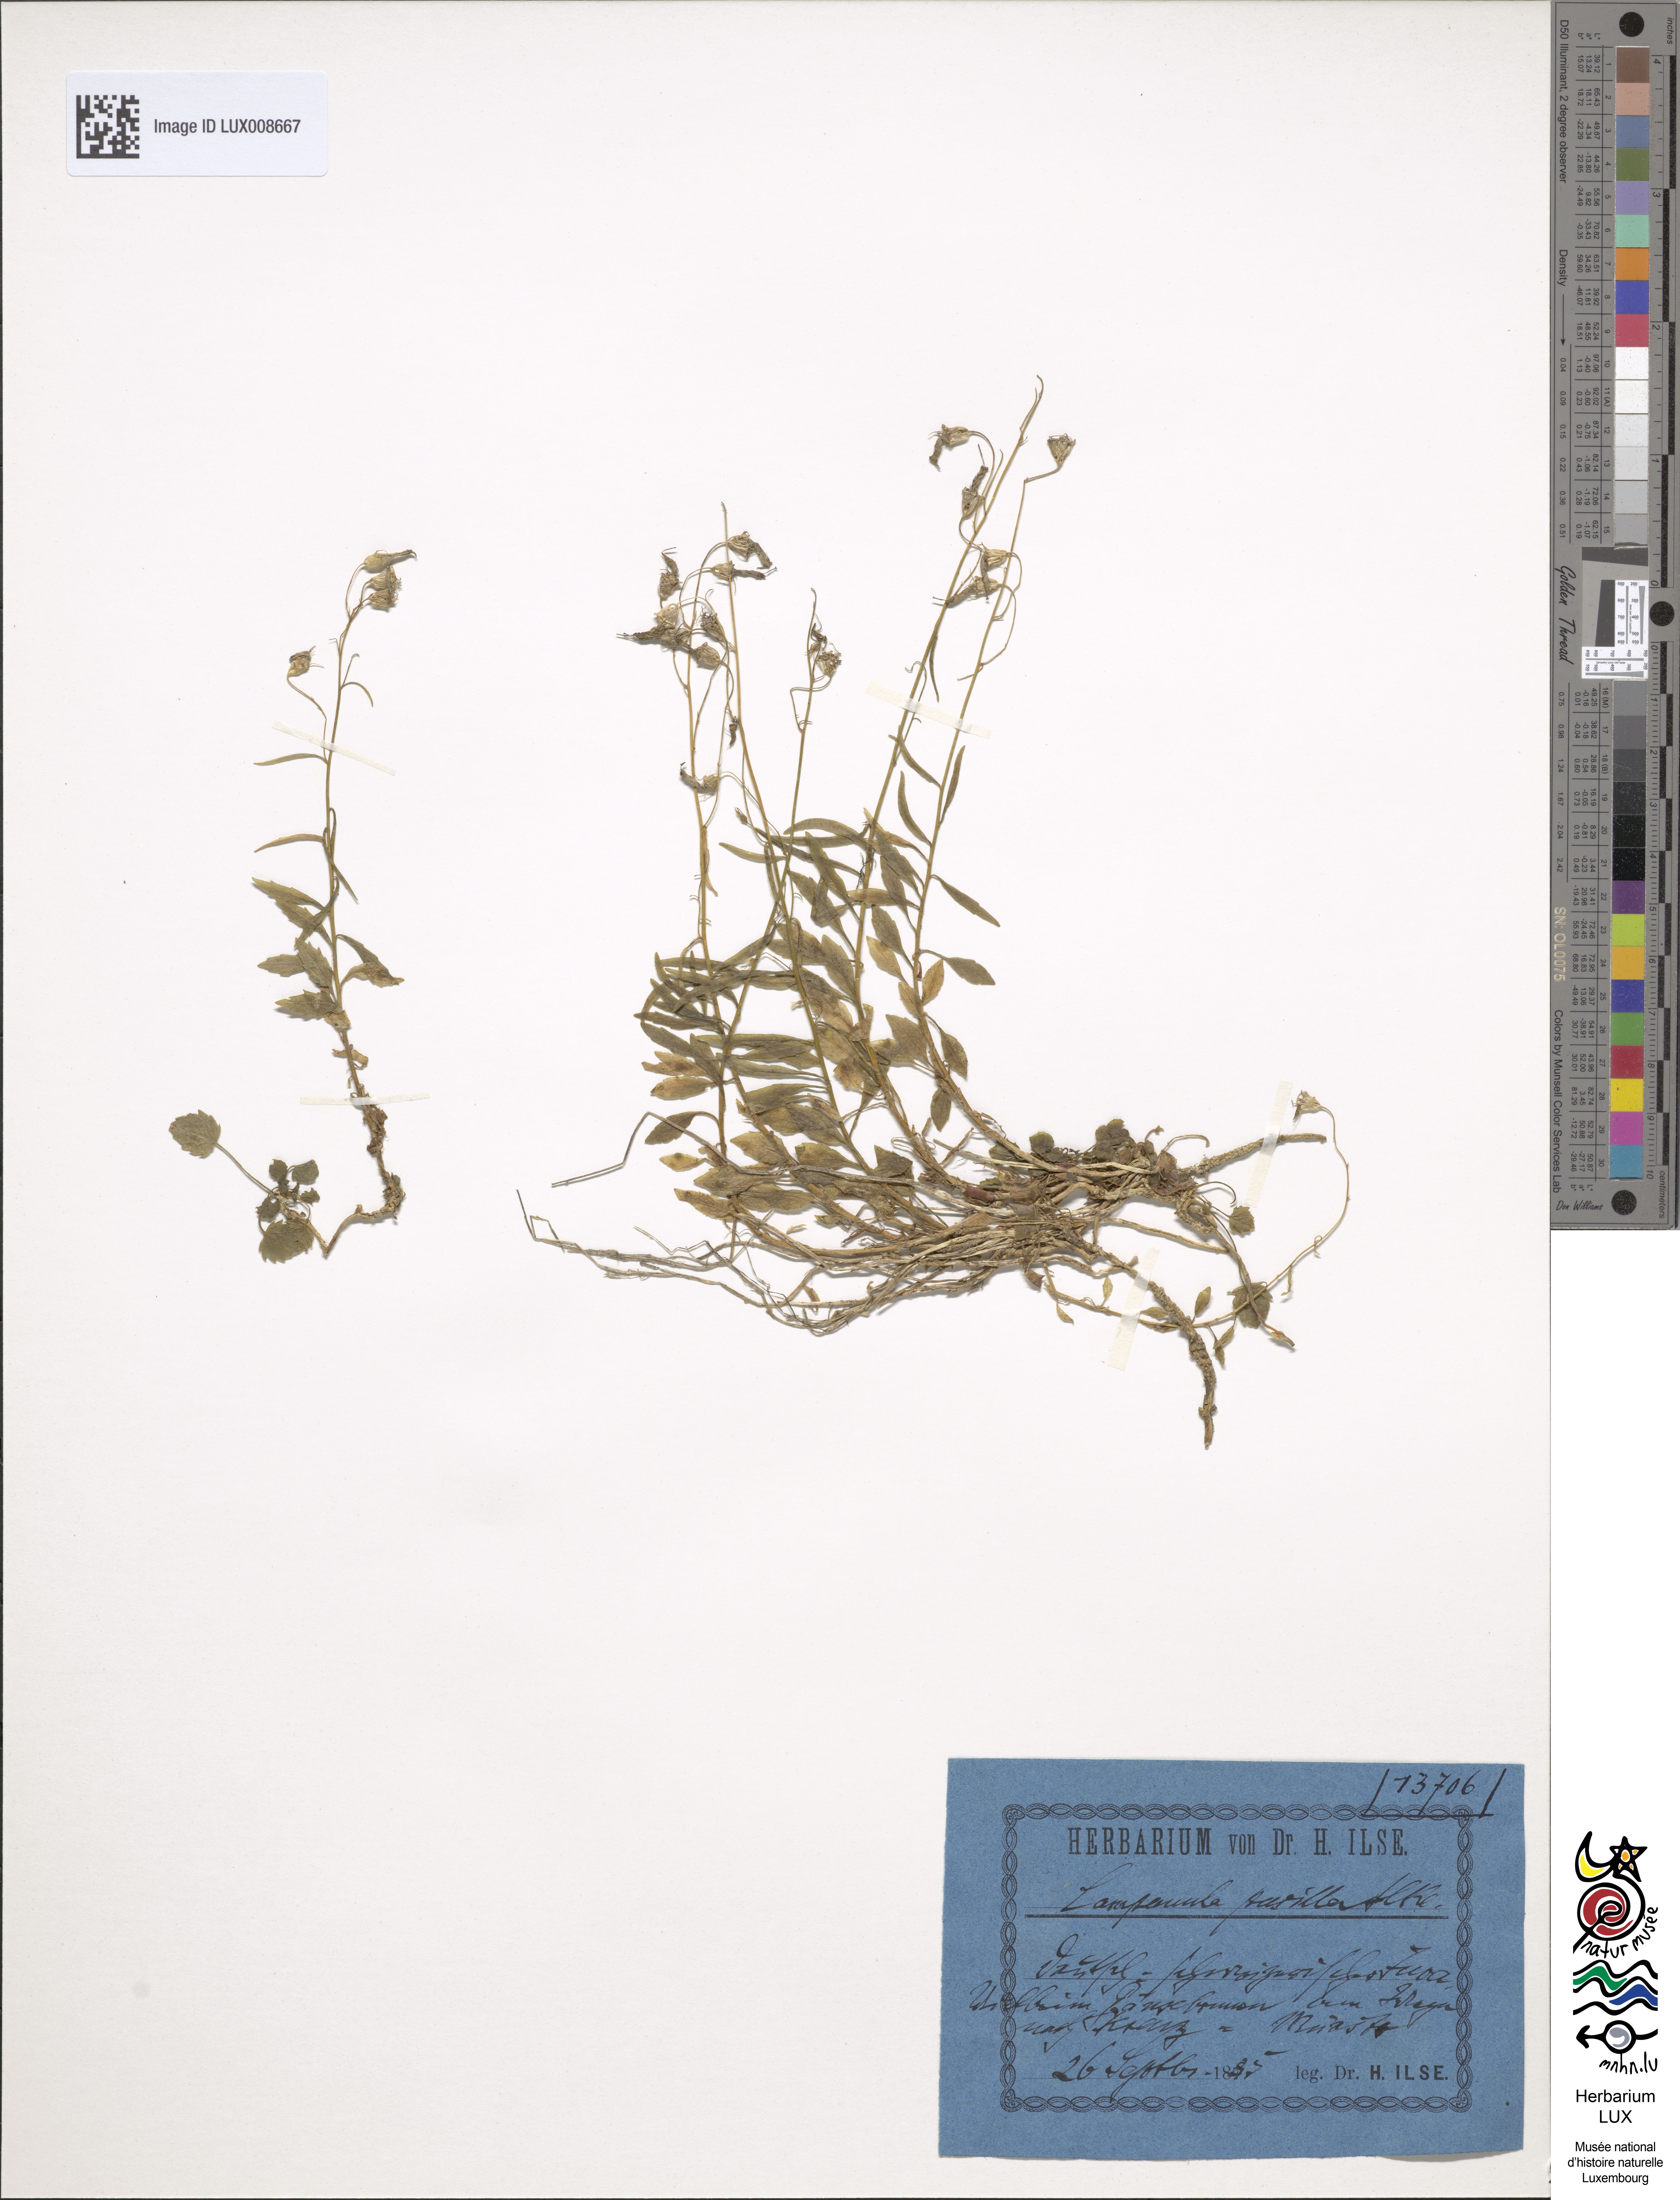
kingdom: Plantae
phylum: Tracheophyta
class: Magnoliopsida
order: Asterales
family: Campanulaceae
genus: Campanula
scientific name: Campanula cochleariifolia
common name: Fairies'-thimbles
